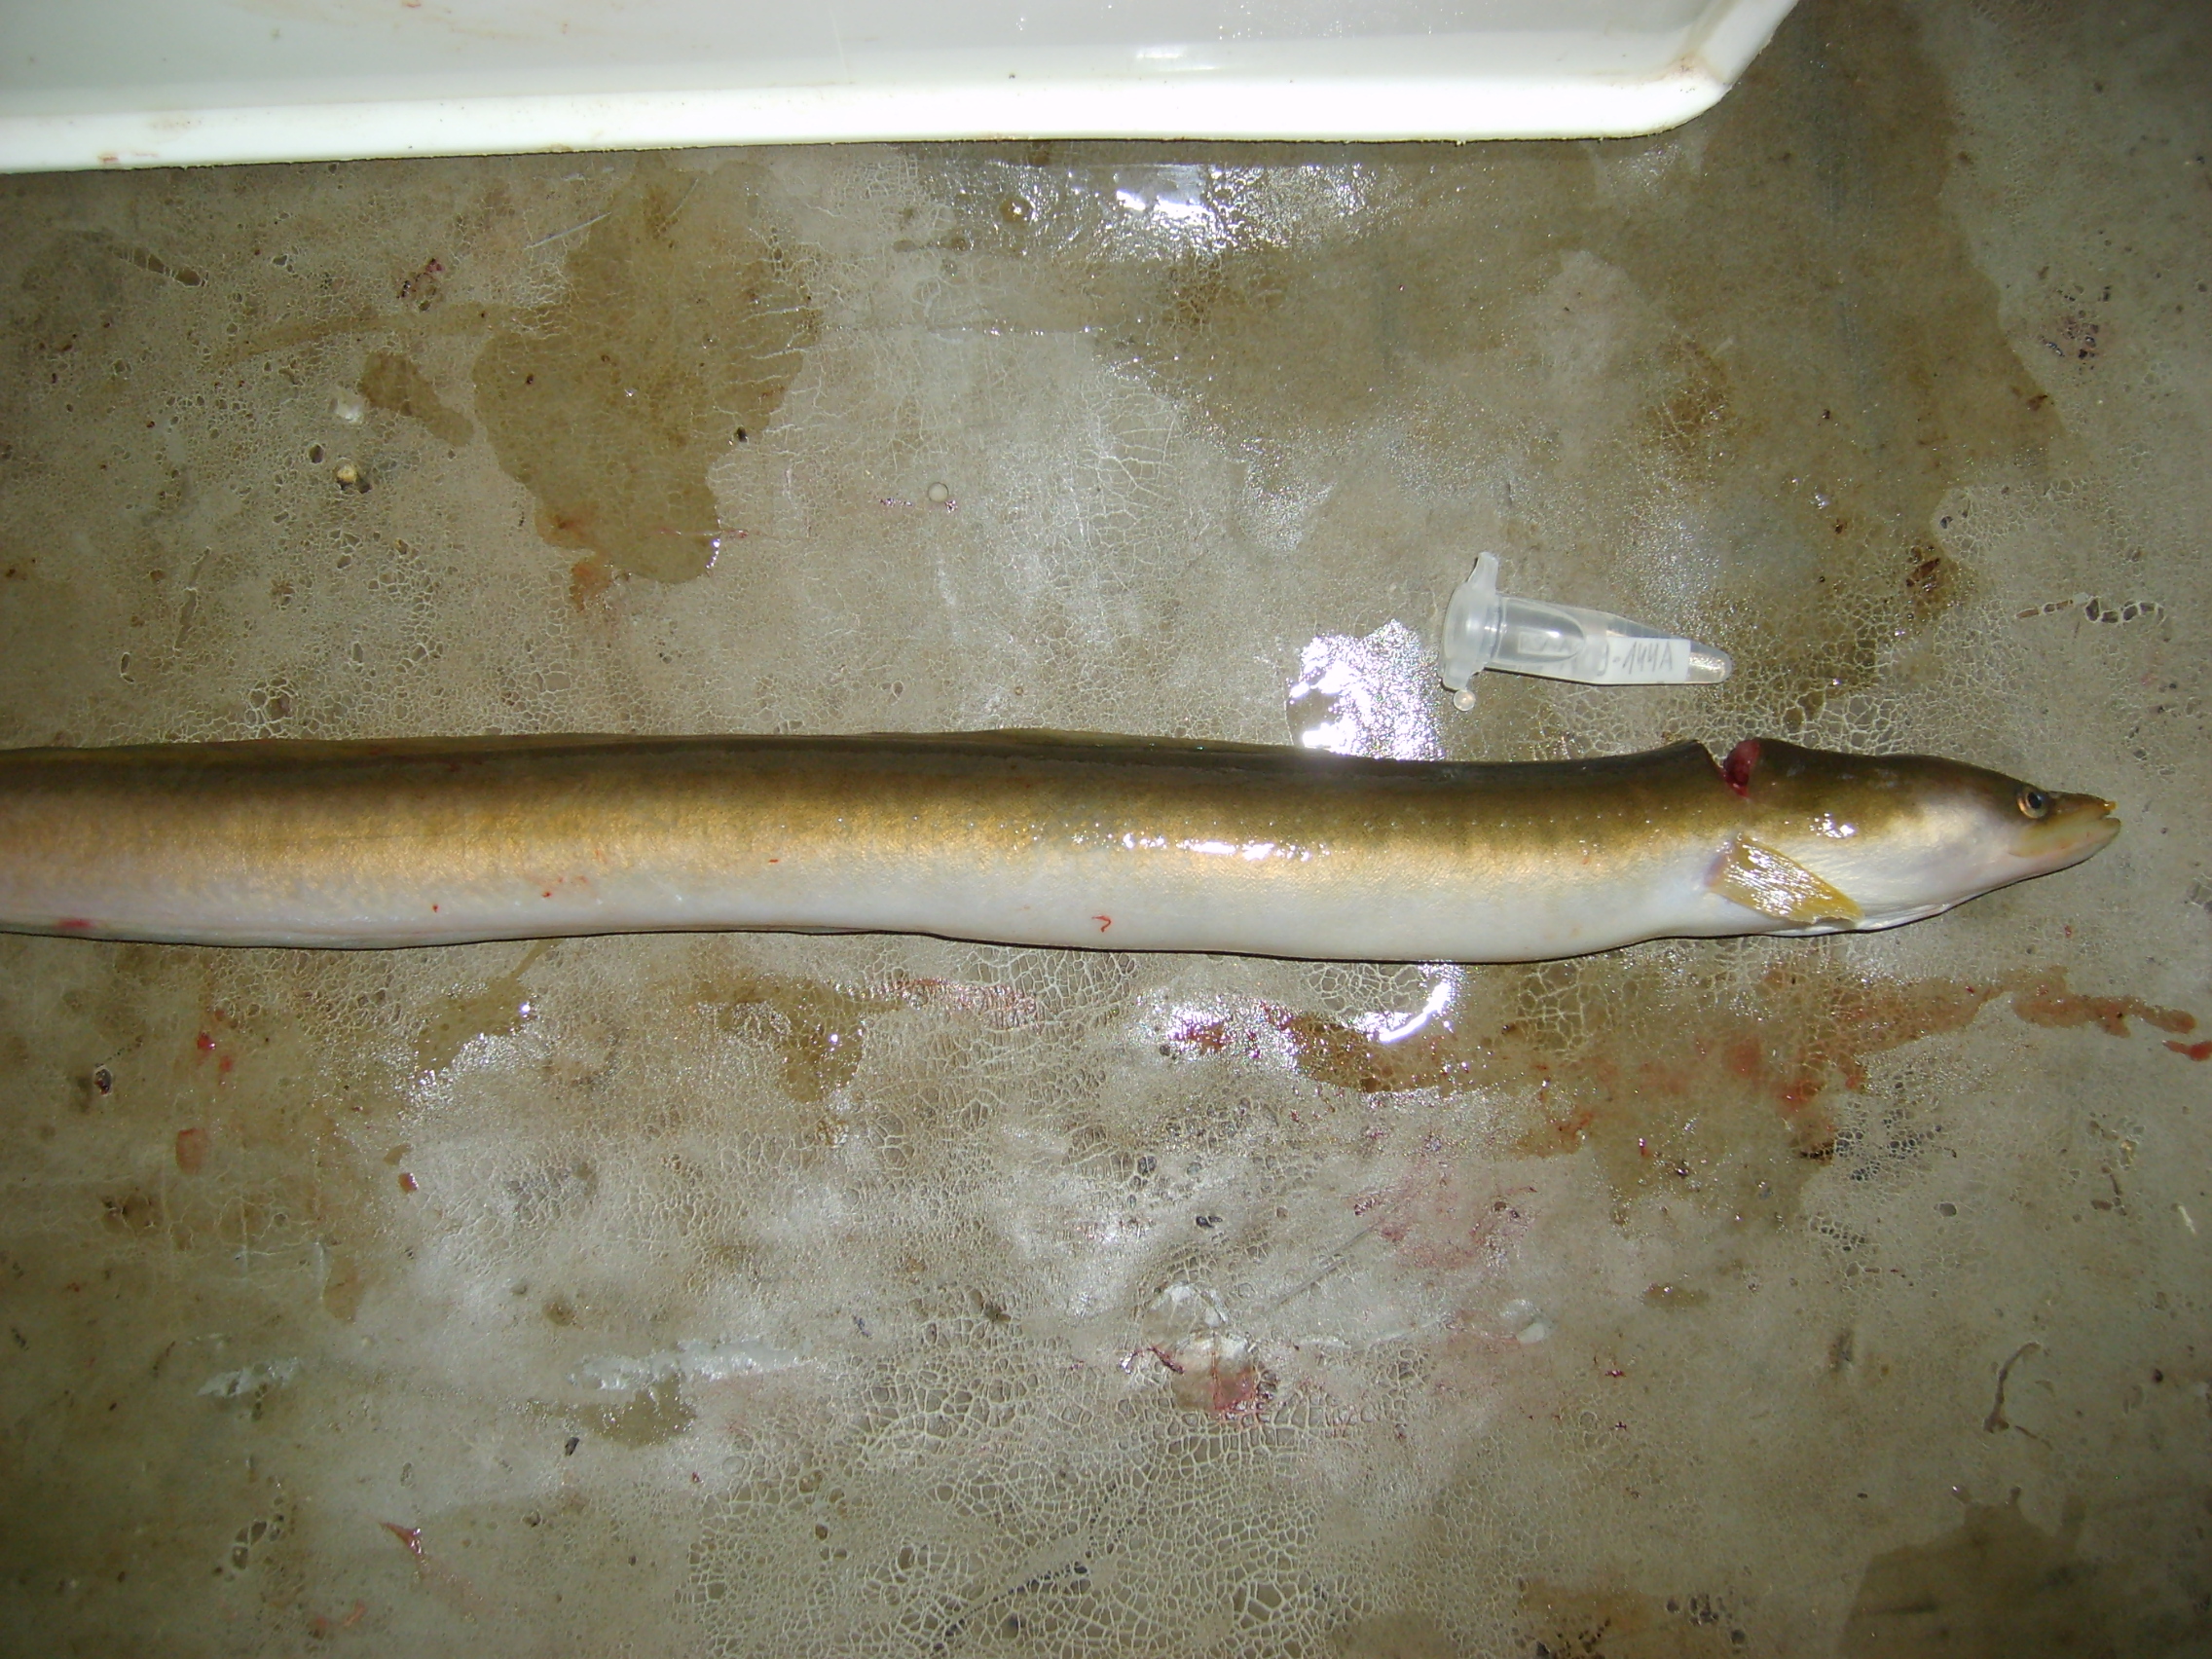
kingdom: Animalia
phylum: Chordata
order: Anguilliformes
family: Anguillidae
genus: Anguilla
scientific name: Anguilla mossambica
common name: African longfin eel
